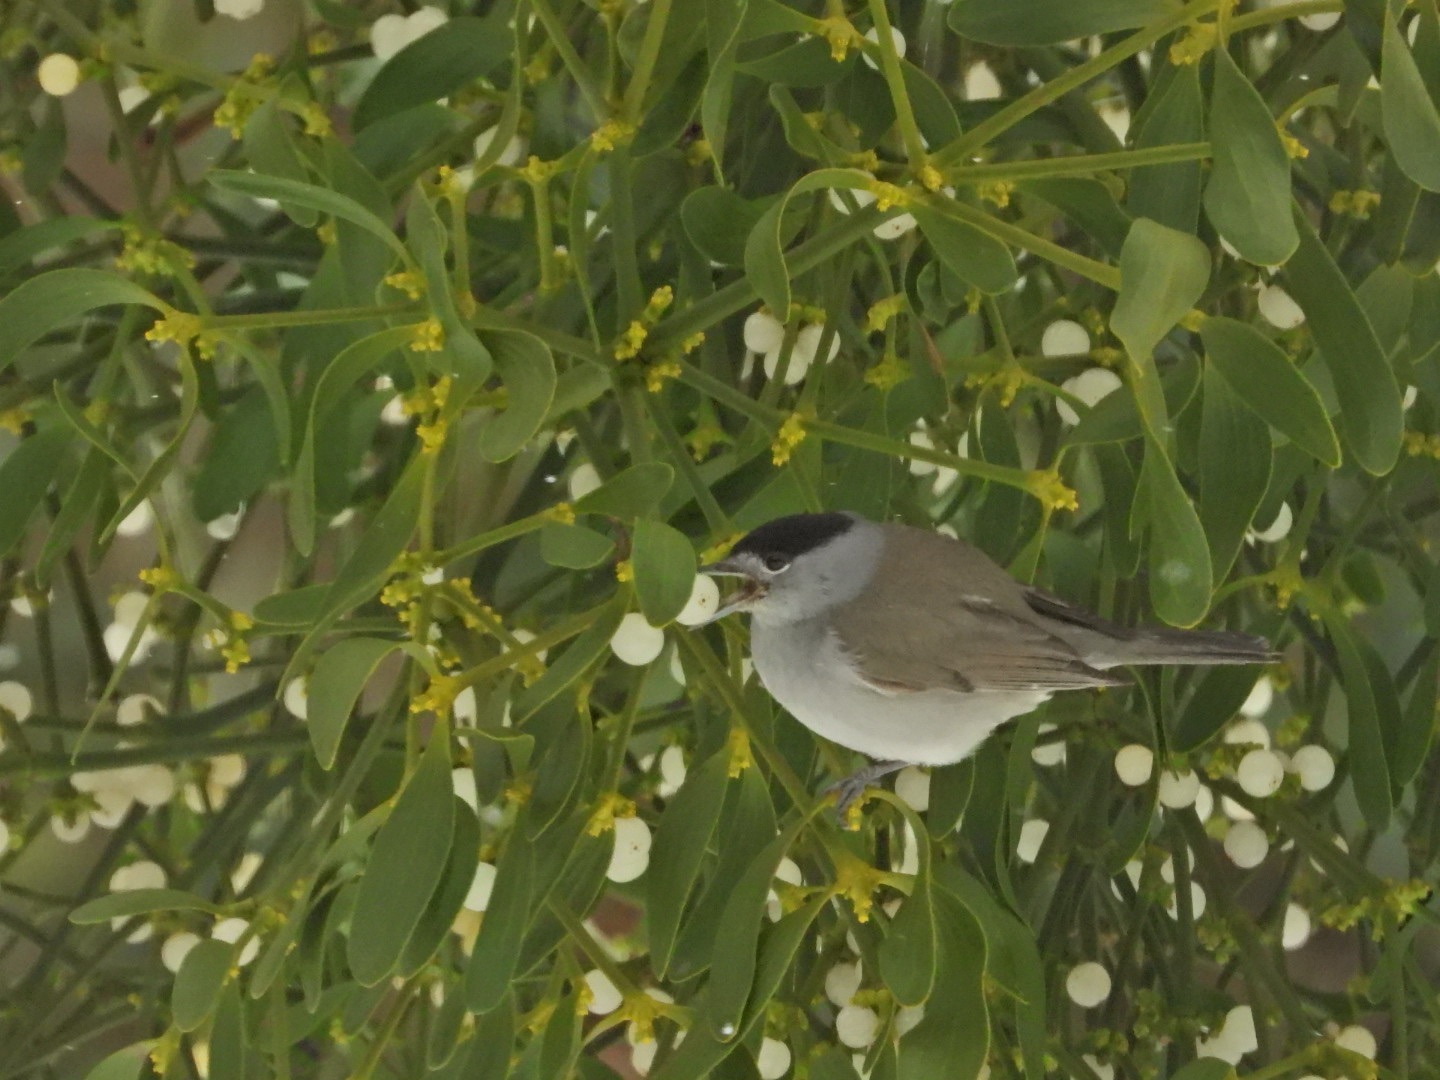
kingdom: Animalia
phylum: Chordata
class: Aves
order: Passeriformes
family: Sylviidae
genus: Sylvia
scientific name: Sylvia atricapilla
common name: Munk
